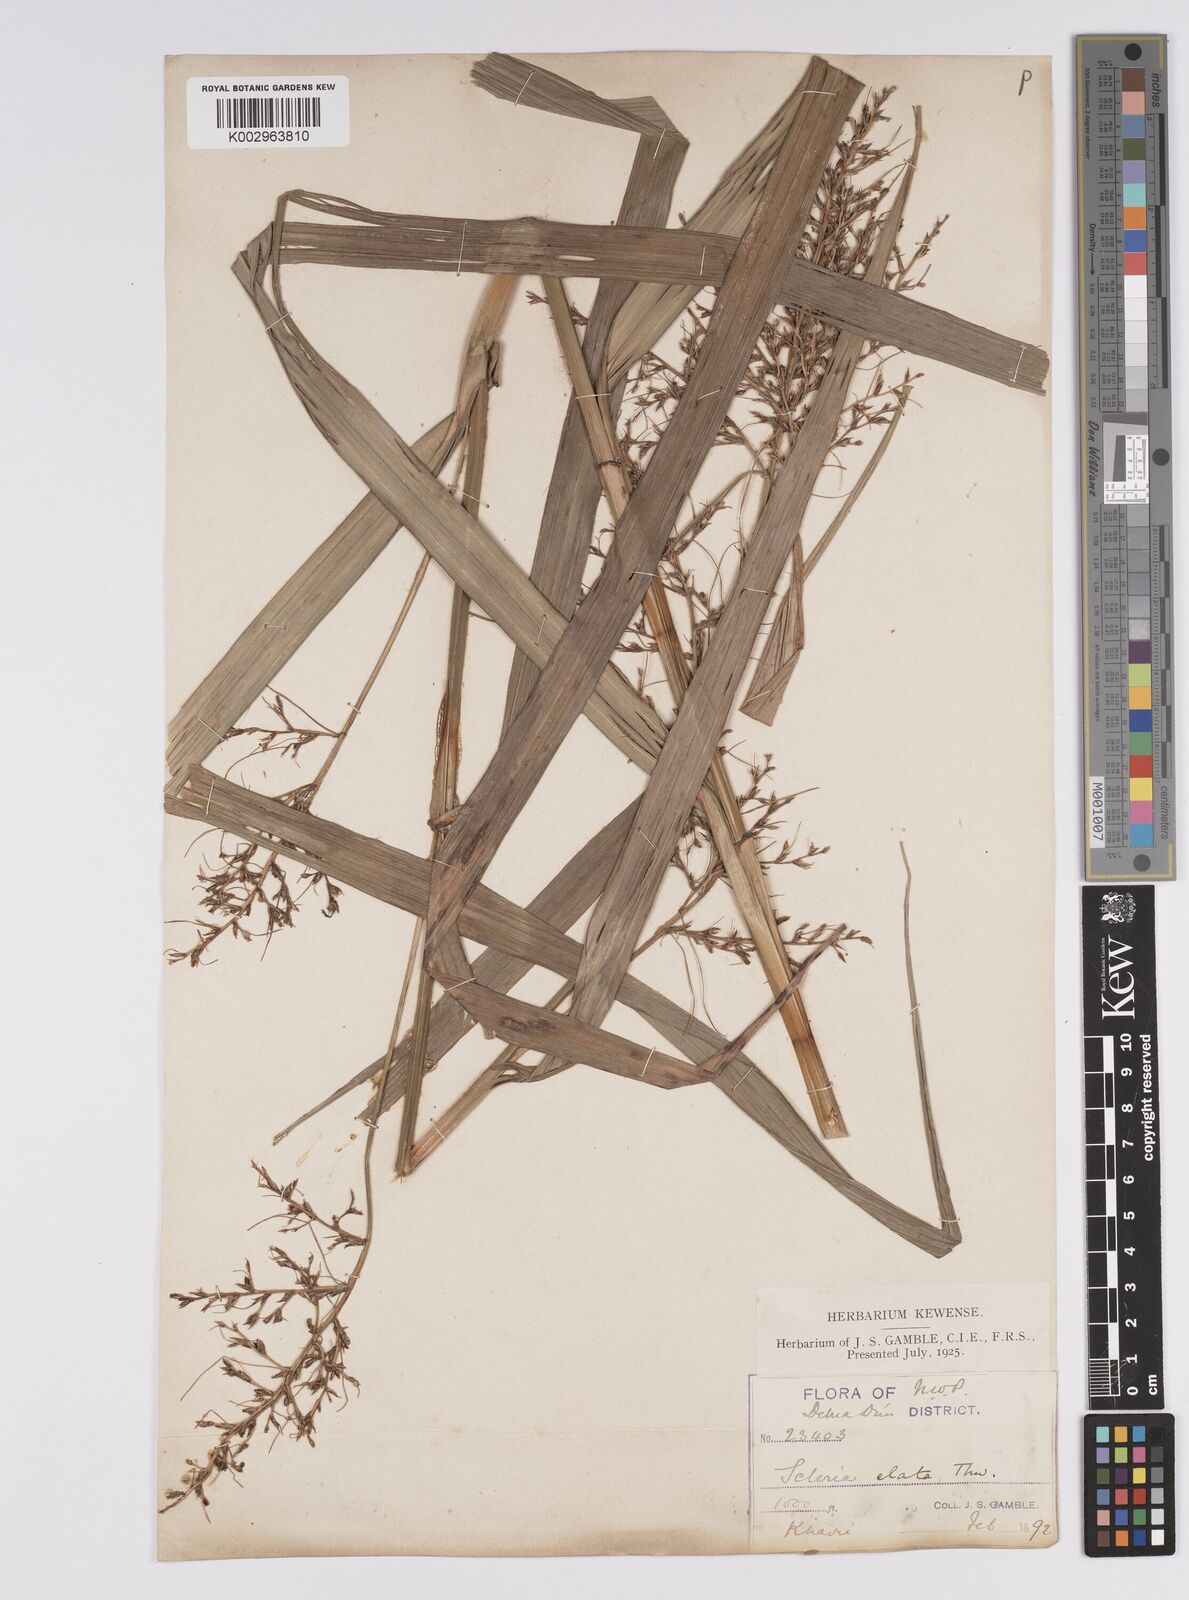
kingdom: Plantae
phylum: Tracheophyta
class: Liliopsida
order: Poales
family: Cyperaceae
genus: Scleria
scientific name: Scleria terrestris
